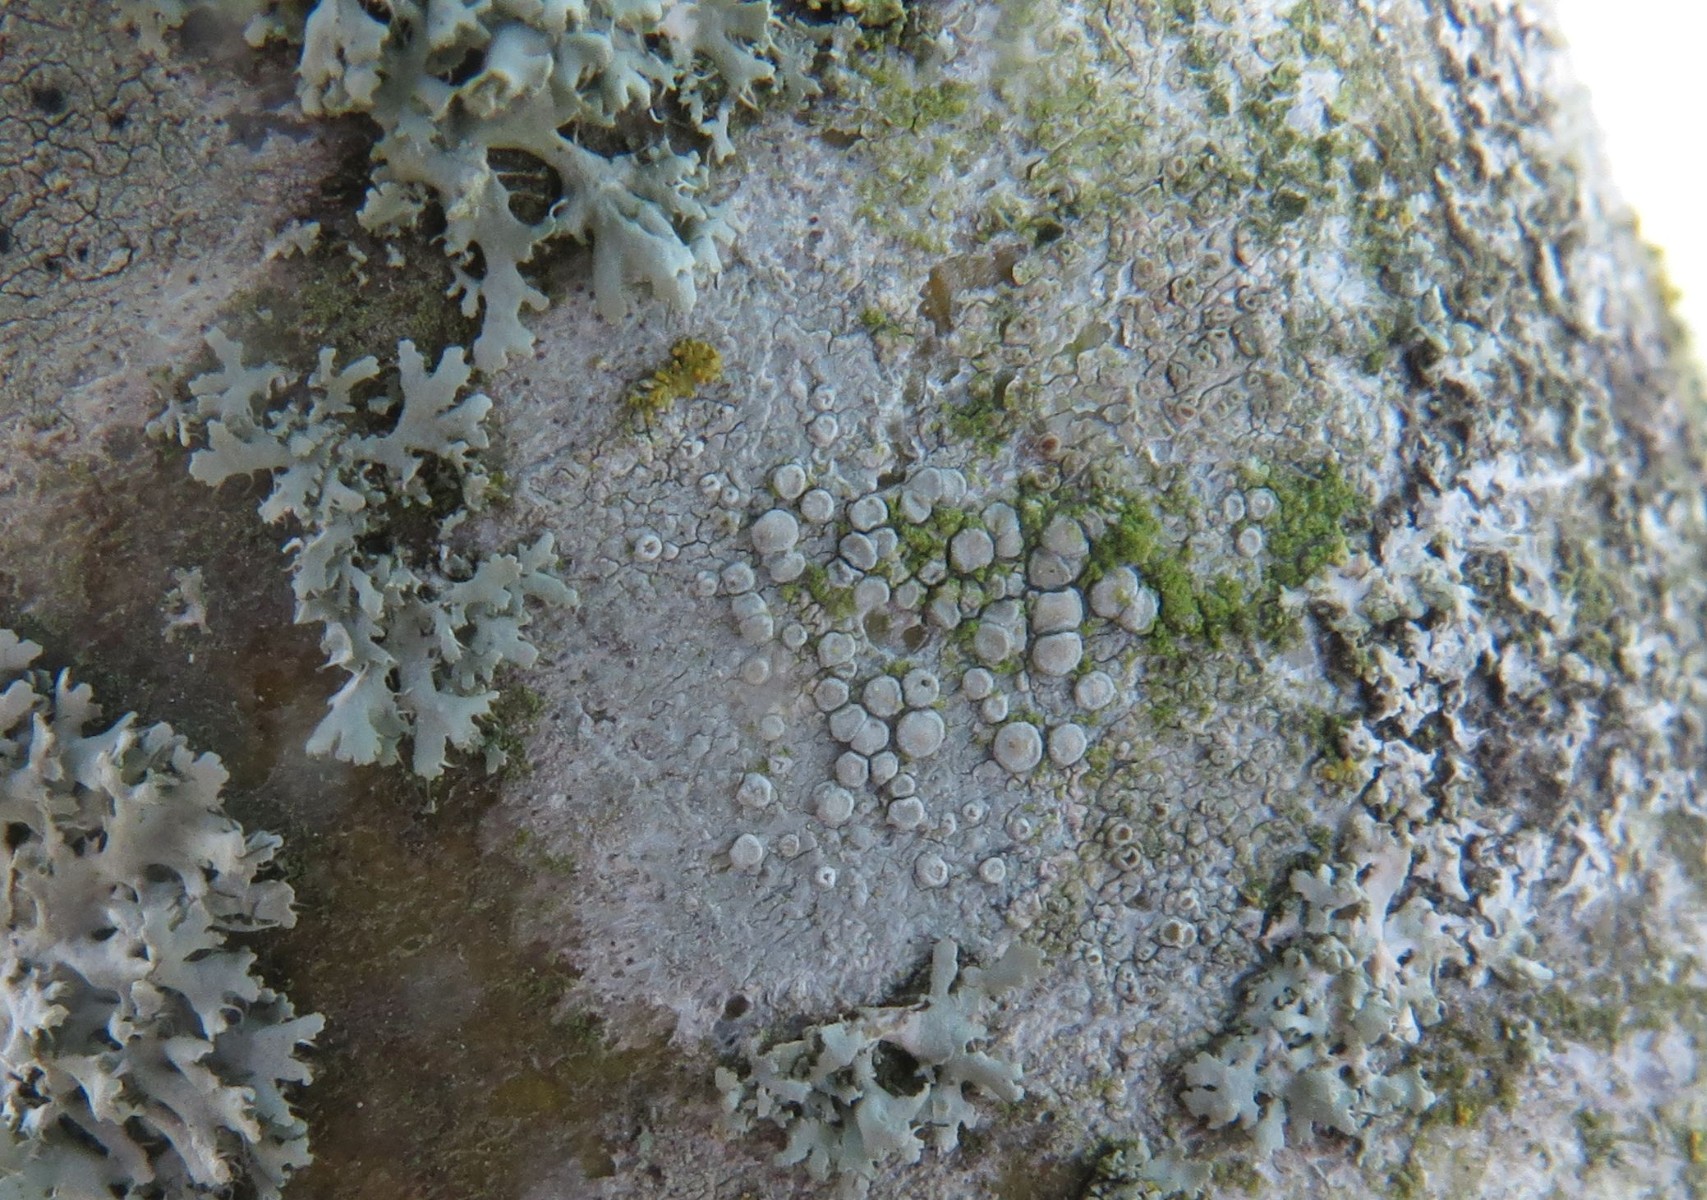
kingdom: Fungi
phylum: Ascomycota
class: Lecanoromycetes
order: Lecanorales
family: Lecanoraceae
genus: Glaucomaria
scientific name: Glaucomaria carpinea
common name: hviddugget kantskivelav
